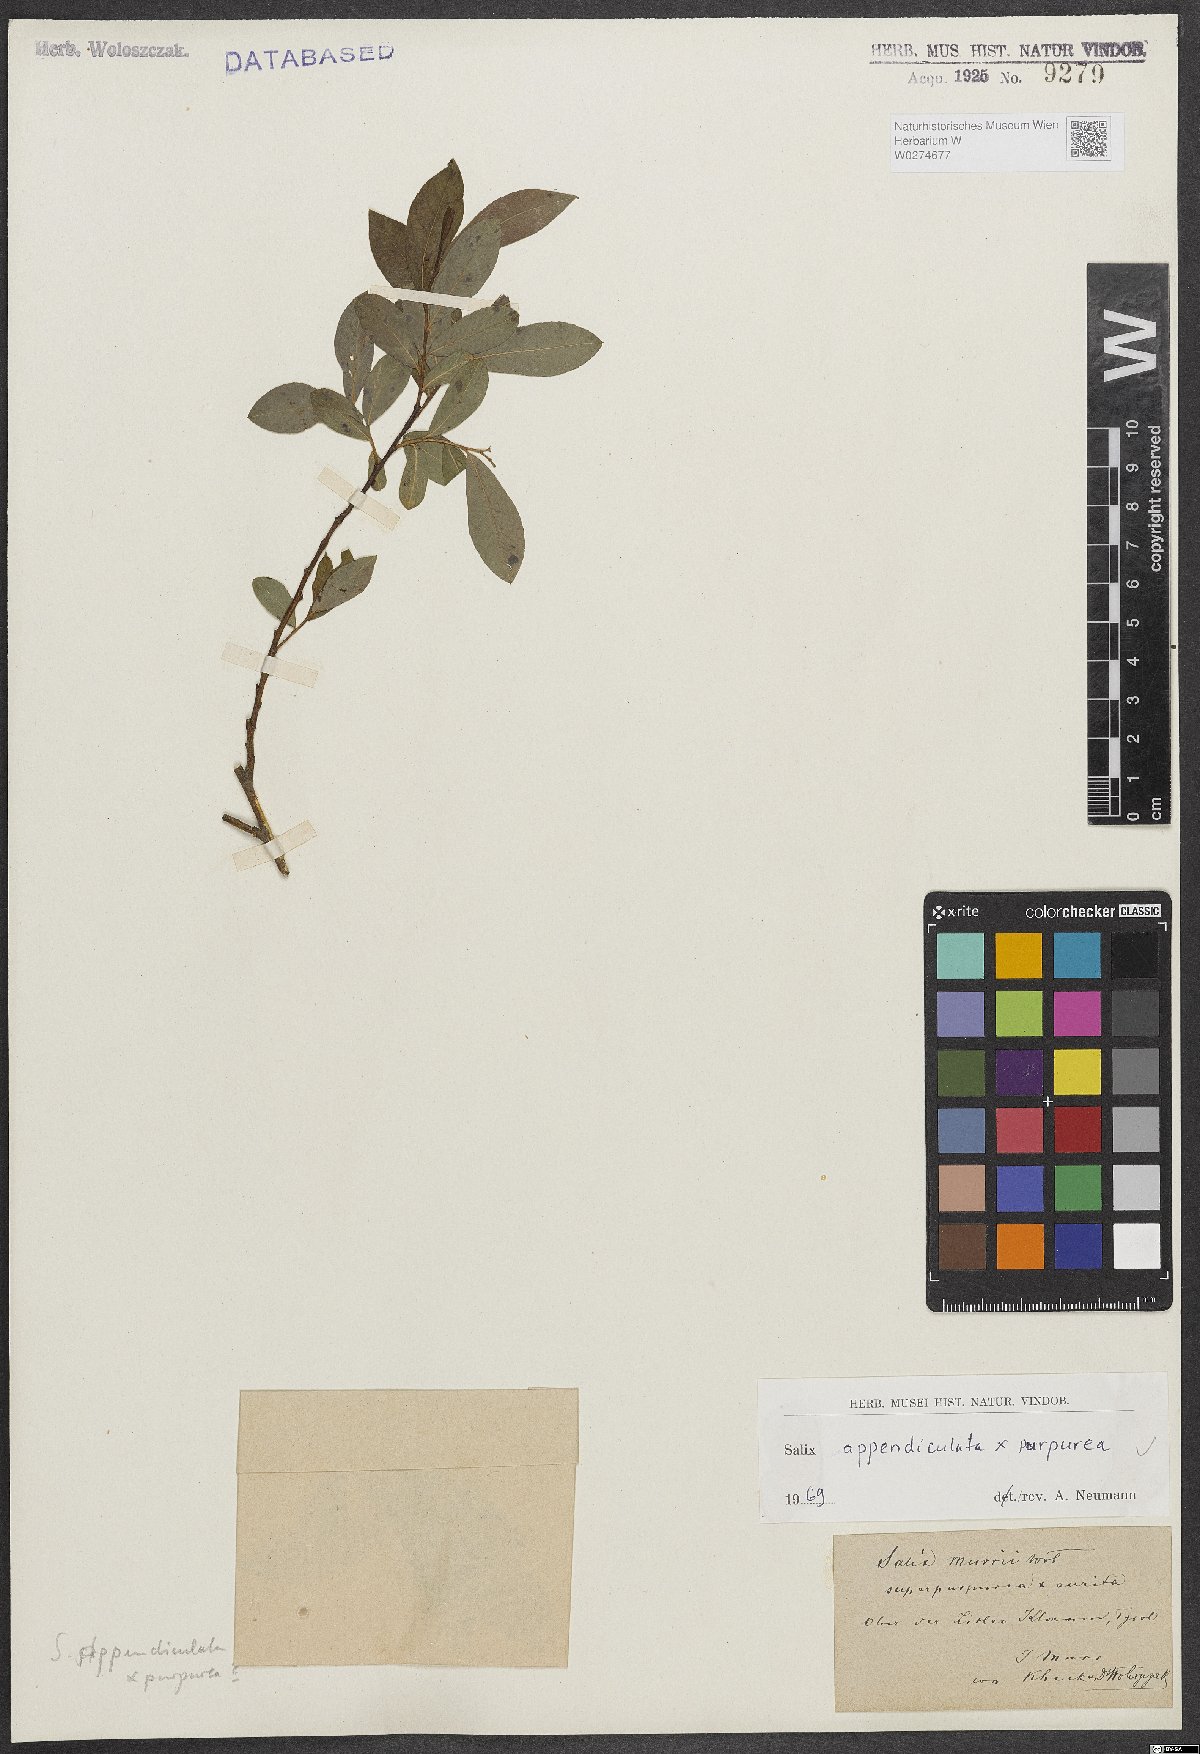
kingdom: Plantae
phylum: Tracheophyta
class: Magnoliopsida
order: Malpighiales
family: Salicaceae
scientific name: Salicaceae
